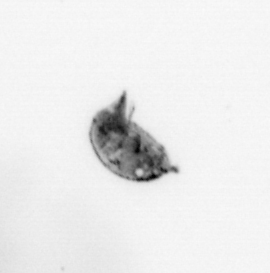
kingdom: Animalia
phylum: Arthropoda
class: Maxillopoda
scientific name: Maxillopoda
